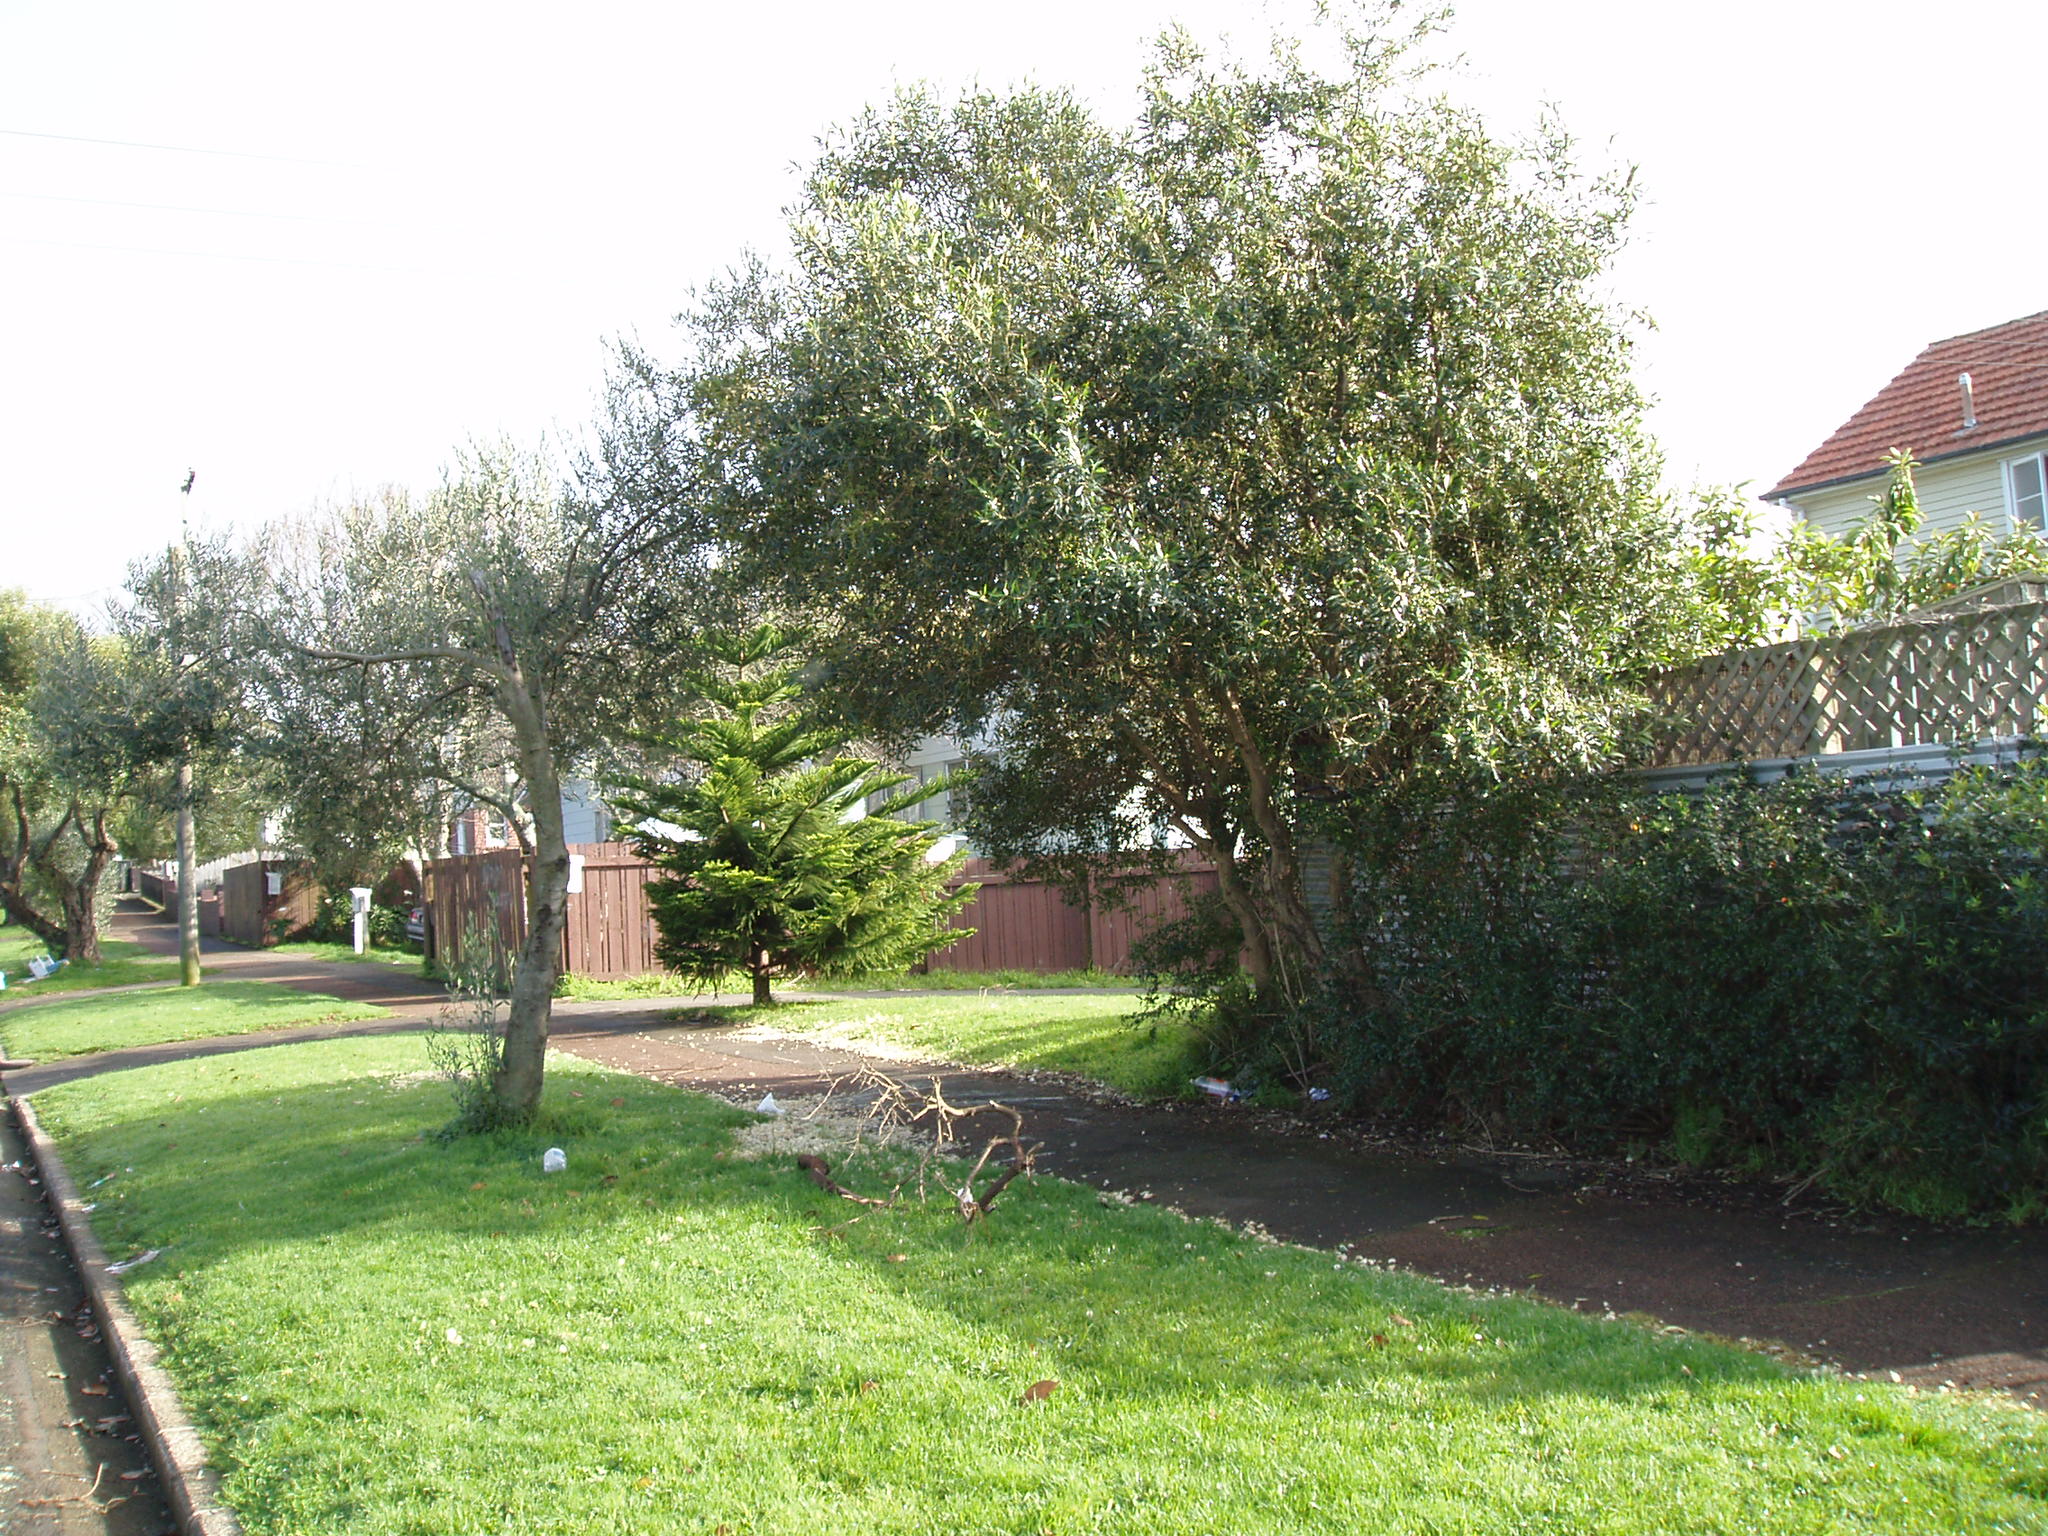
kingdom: Plantae
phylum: Tracheophyta
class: Magnoliopsida
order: Lamiales
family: Oleaceae
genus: Olea
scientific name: Olea europaea
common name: Olive
